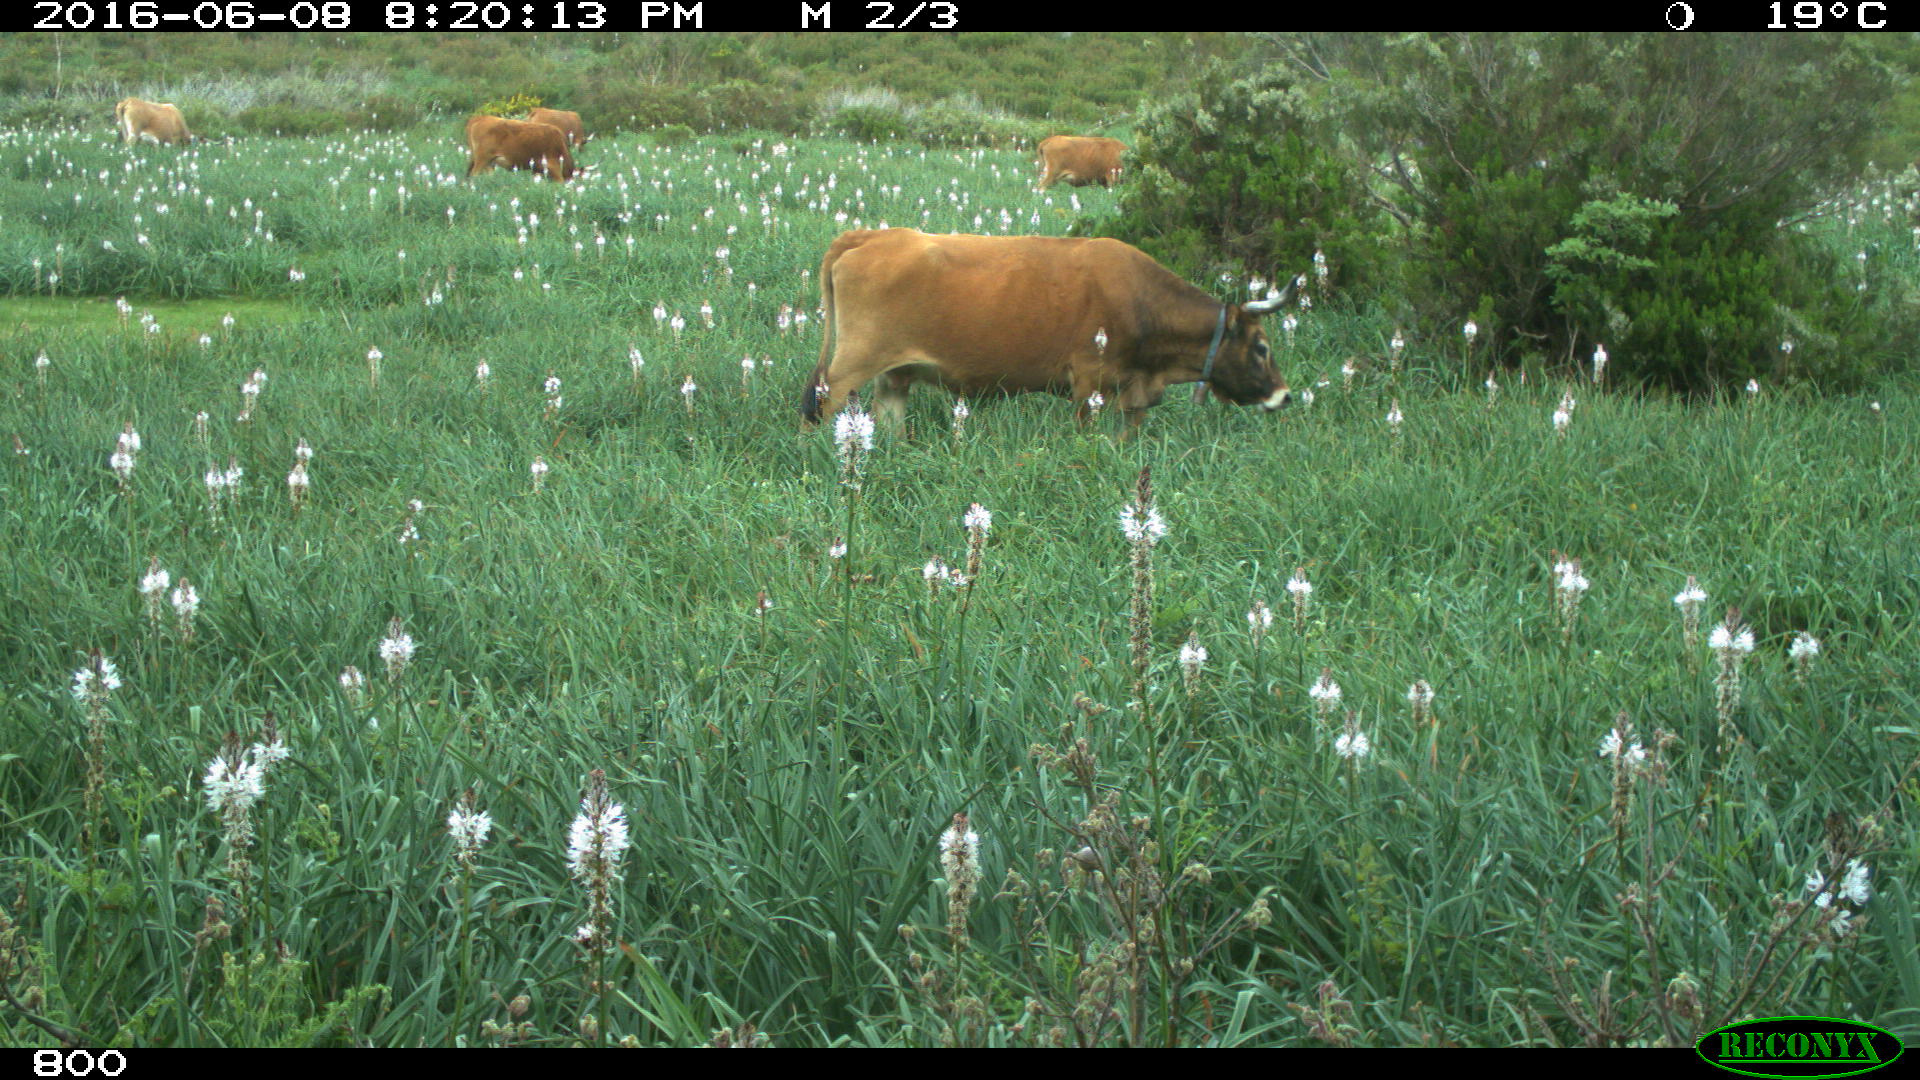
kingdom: Animalia
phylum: Chordata
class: Mammalia
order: Artiodactyla
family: Bovidae
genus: Bos
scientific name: Bos taurus
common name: Domesticated cattle
